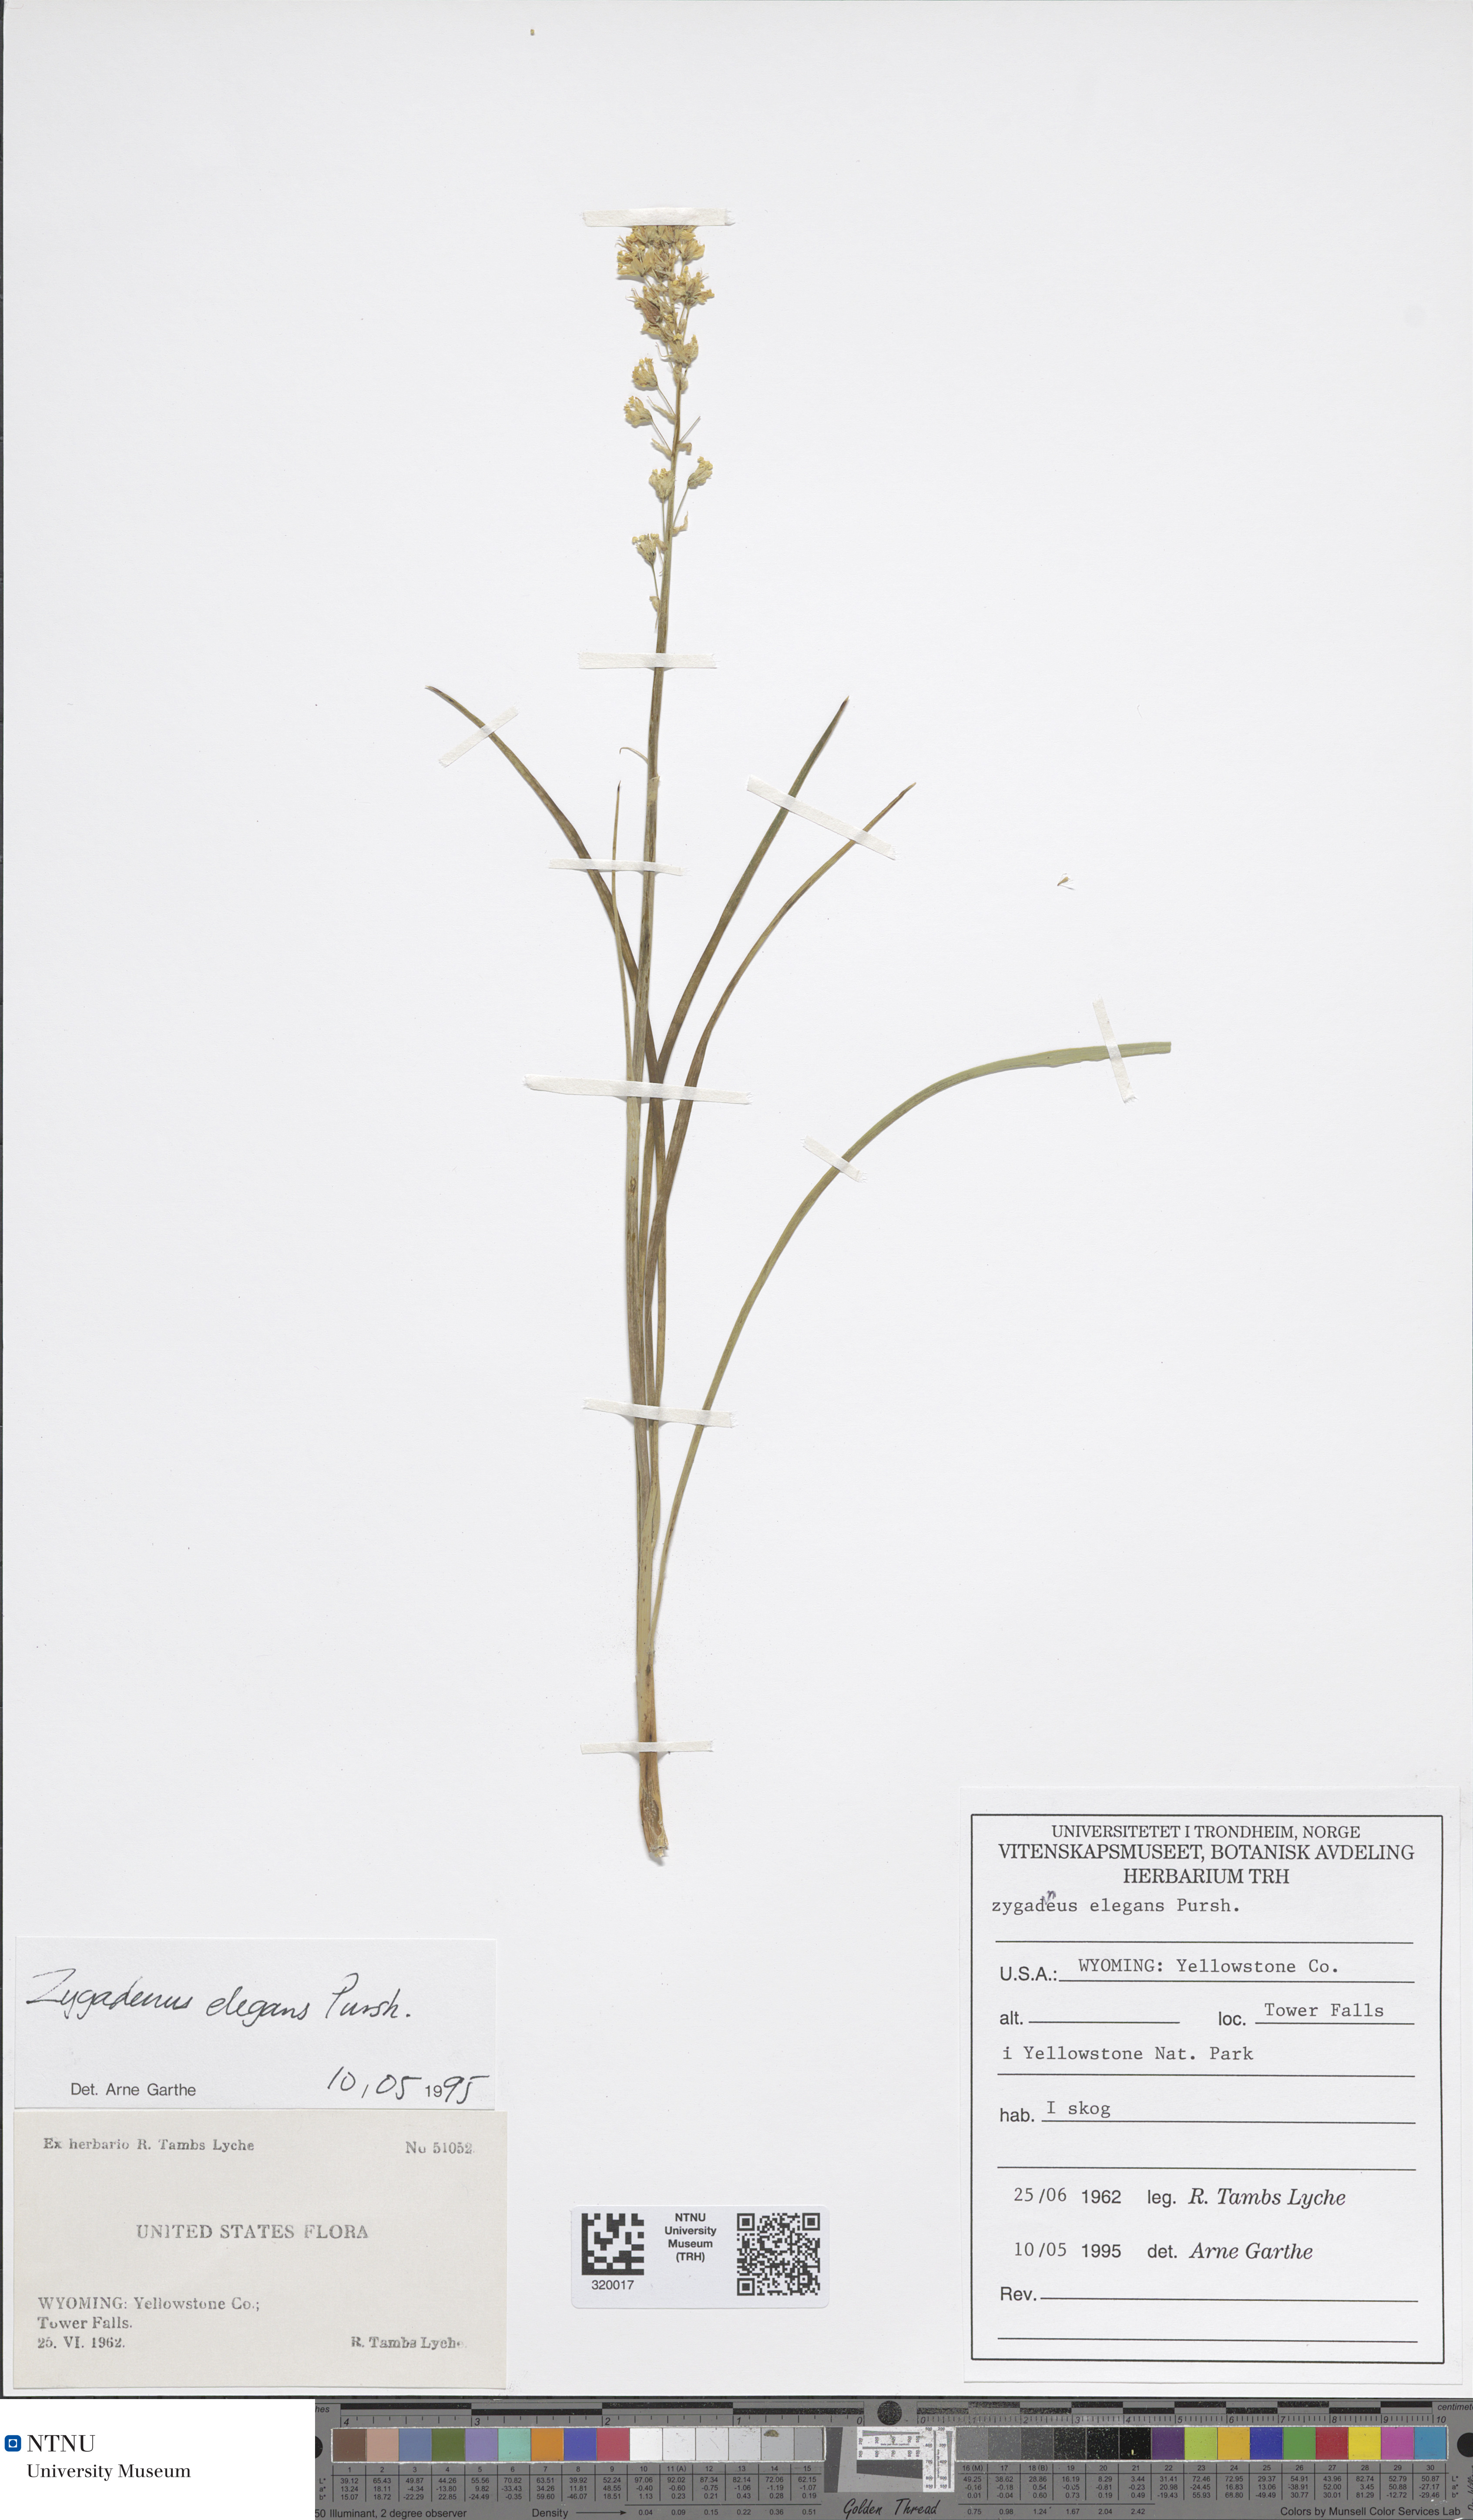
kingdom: Plantae
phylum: Tracheophyta
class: Liliopsida
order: Liliales
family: Melanthiaceae
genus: Anticlea
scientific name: Anticlea elegans
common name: Mountain death camas
